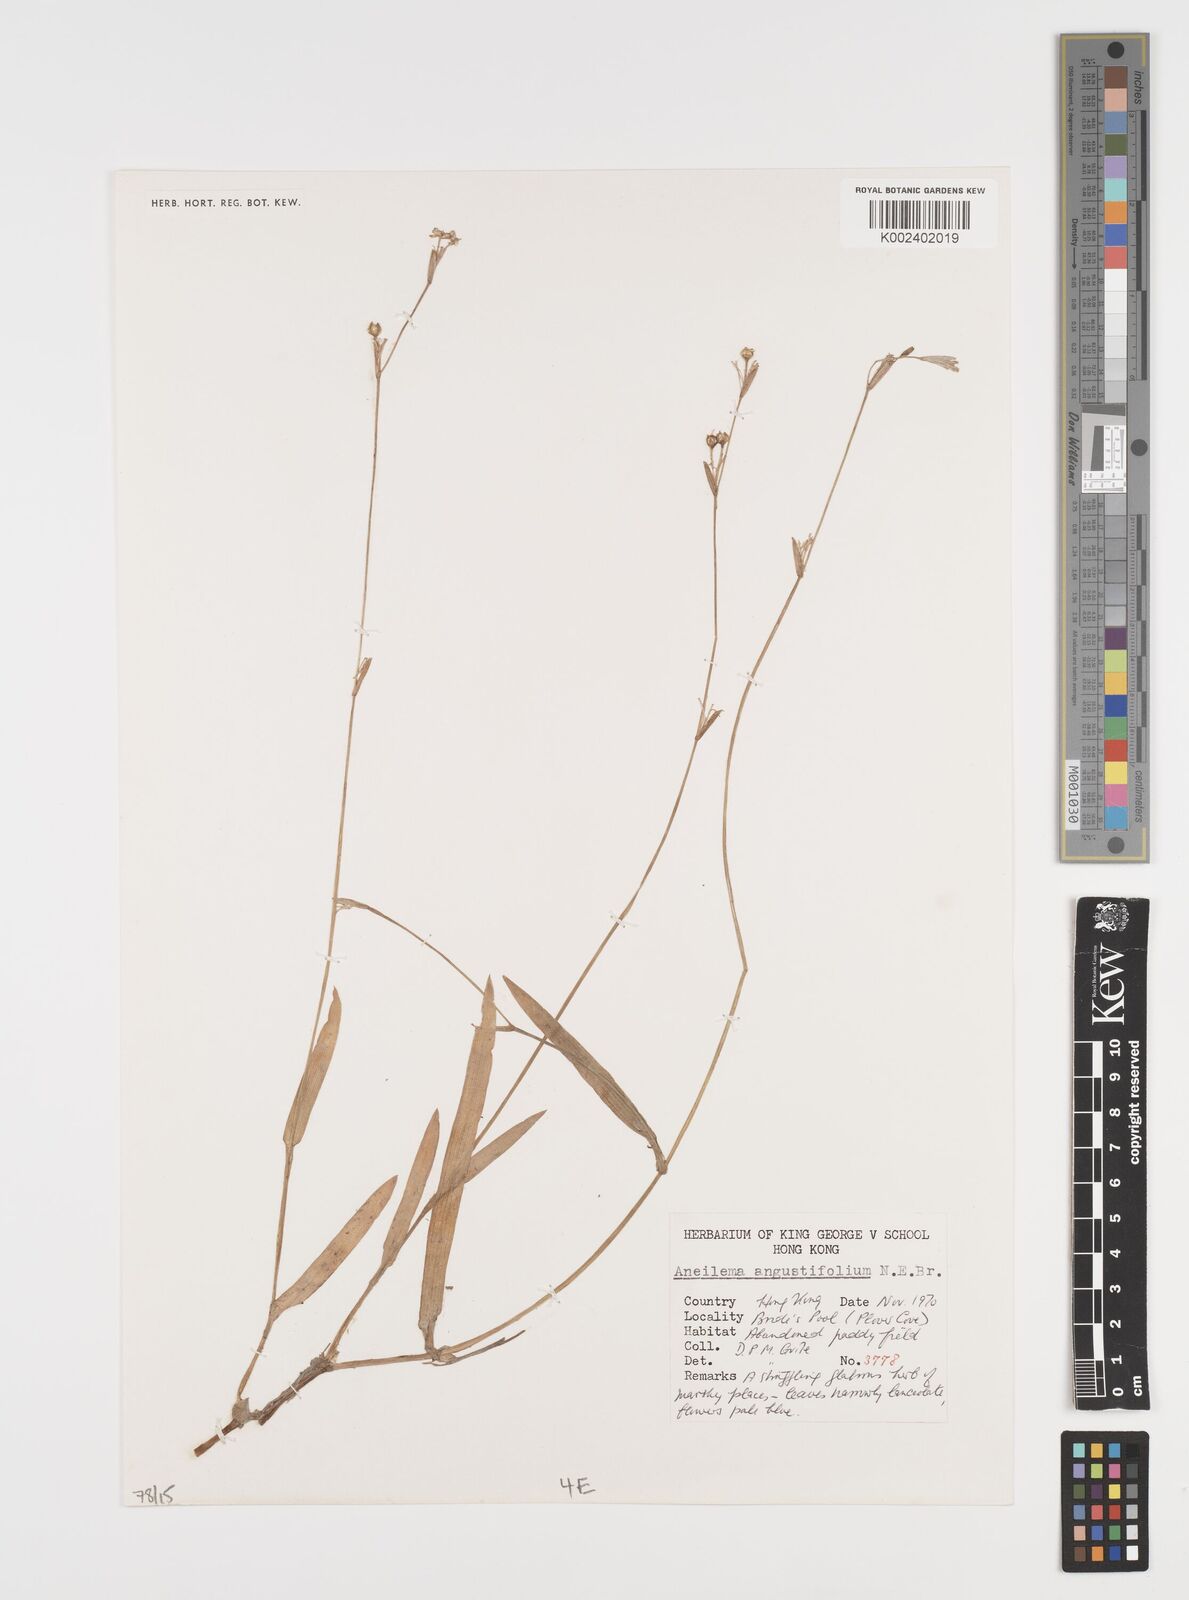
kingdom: Plantae
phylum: Tracheophyta
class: Liliopsida
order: Commelinales
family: Commelinaceae
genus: Murdannia
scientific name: Murdannia loriformis
